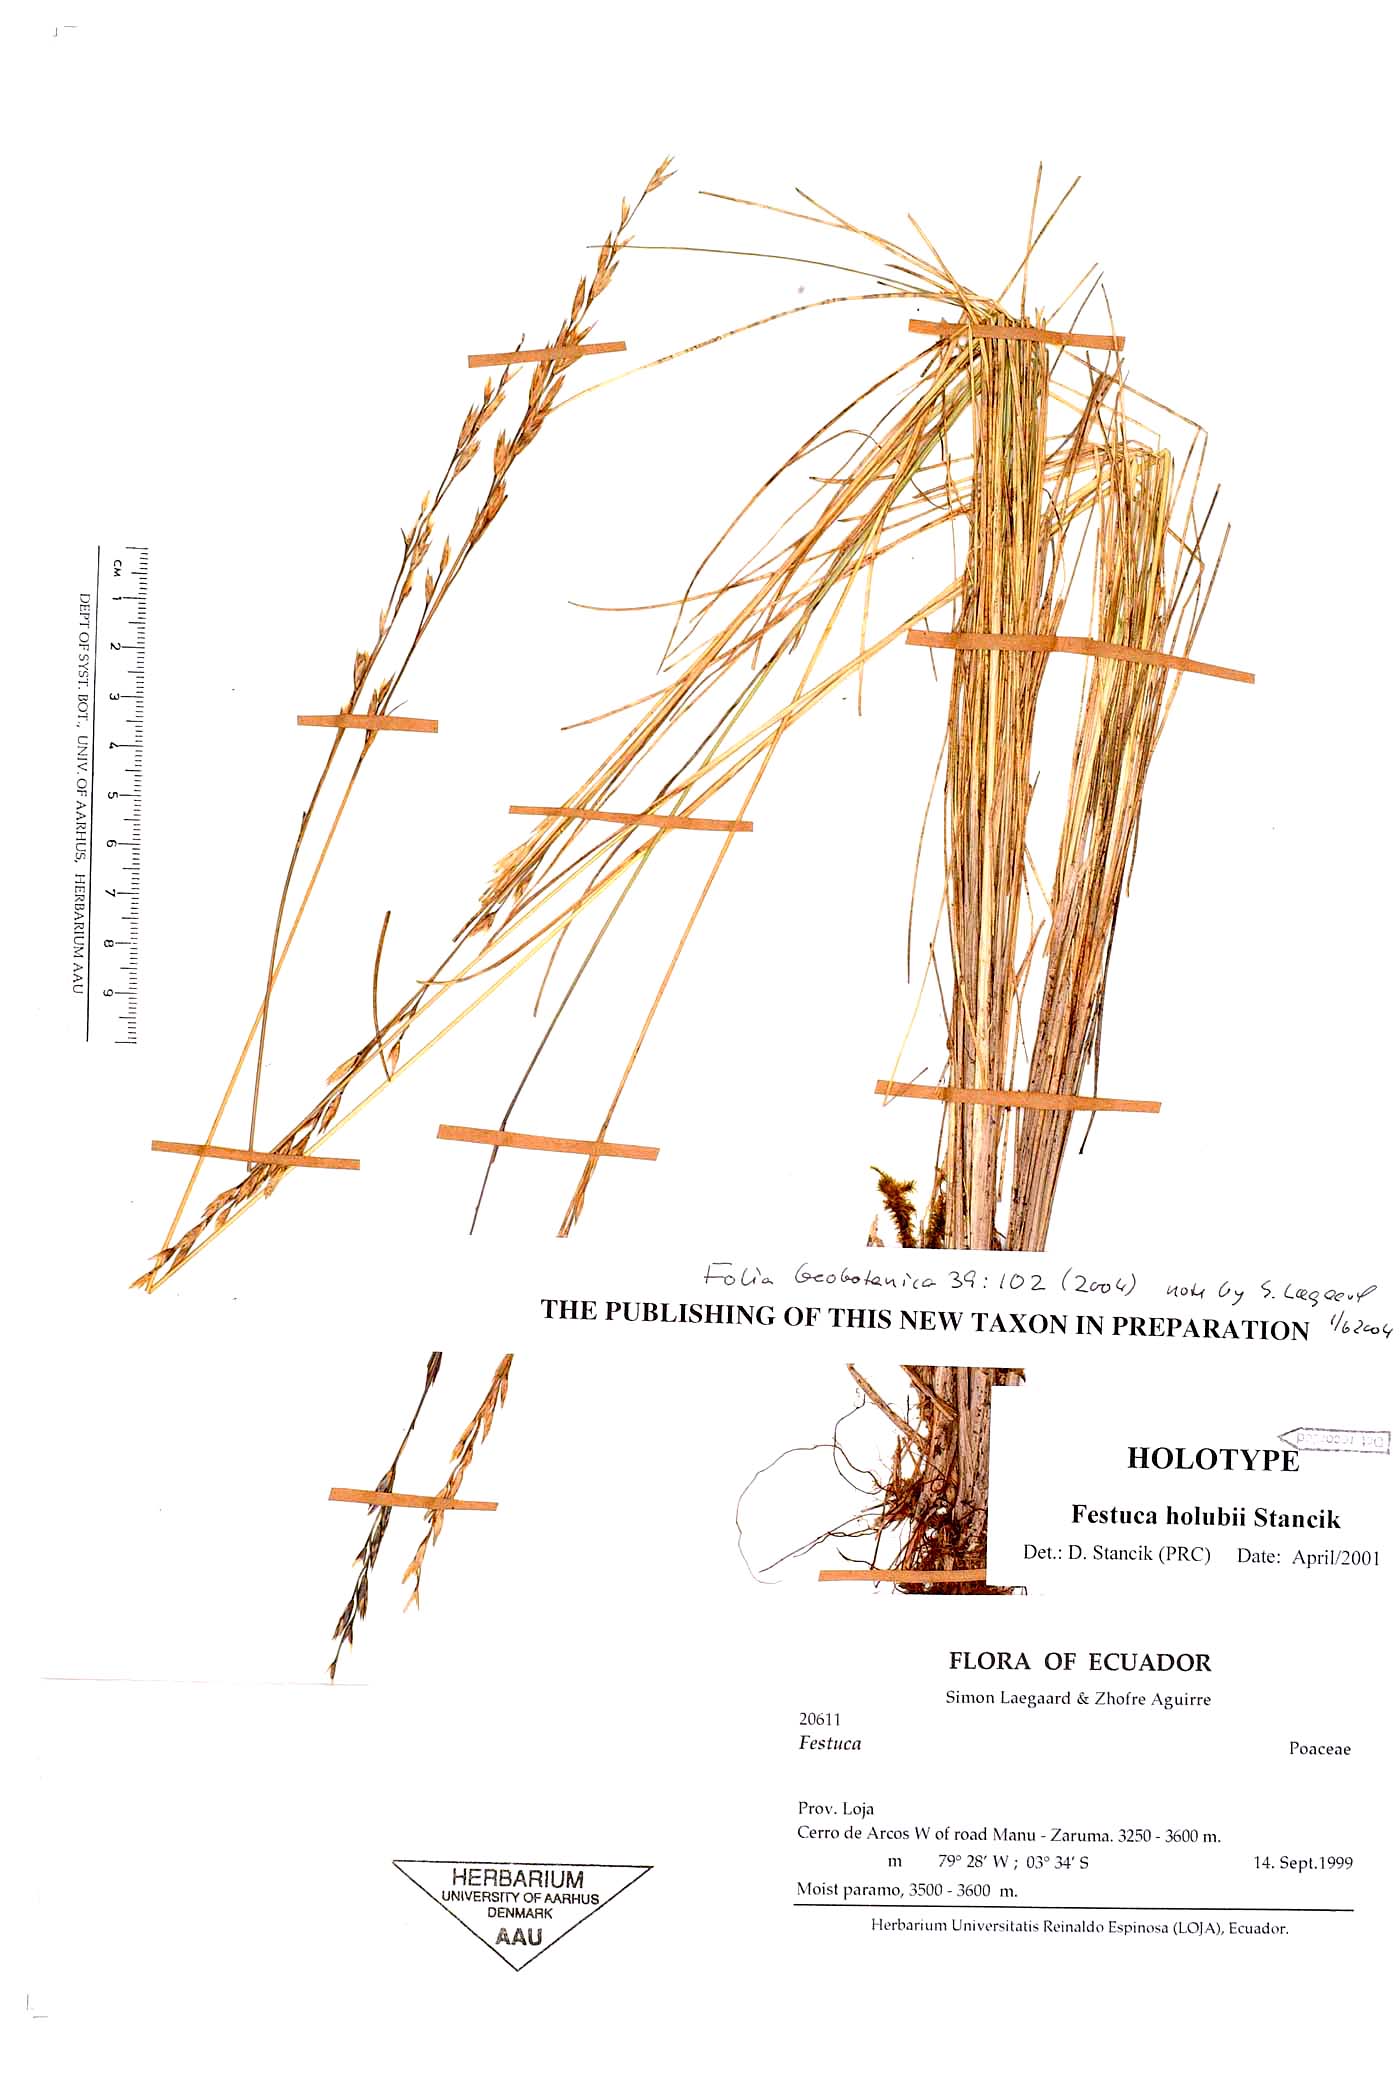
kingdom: Plantae
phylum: Tracheophyta
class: Liliopsida
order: Poales
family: Poaceae
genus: Festuca
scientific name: Festuca holubii
